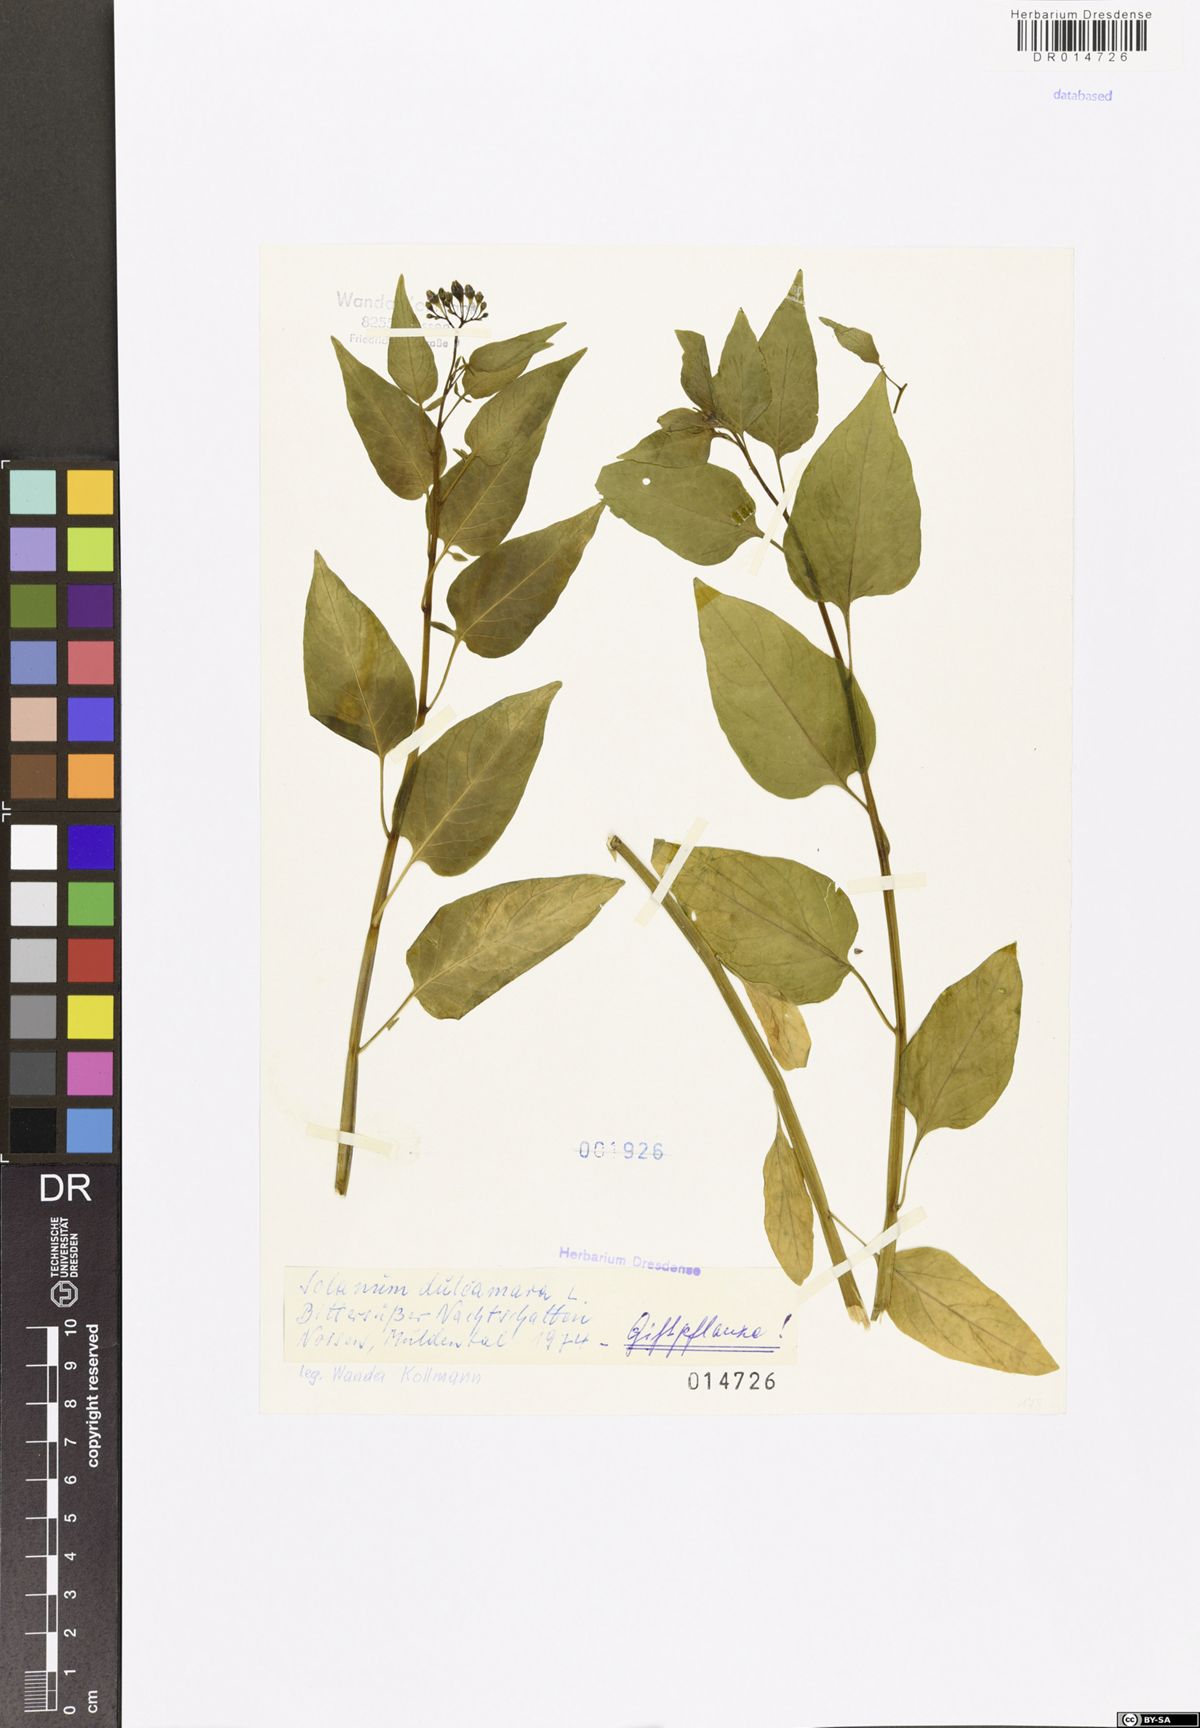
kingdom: Plantae
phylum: Tracheophyta
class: Magnoliopsida
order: Solanales
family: Solanaceae
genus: Solanum
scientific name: Solanum dulcamara
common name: Climbing nightshade
